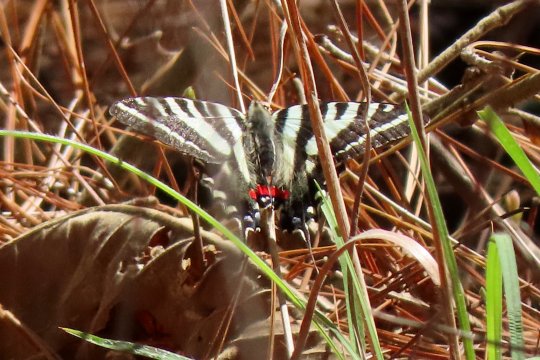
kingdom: Animalia
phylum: Arthropoda
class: Insecta
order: Lepidoptera
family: Papilionidae
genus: Protographium
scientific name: Protographium marcellus
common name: Zebra Swallowtail
